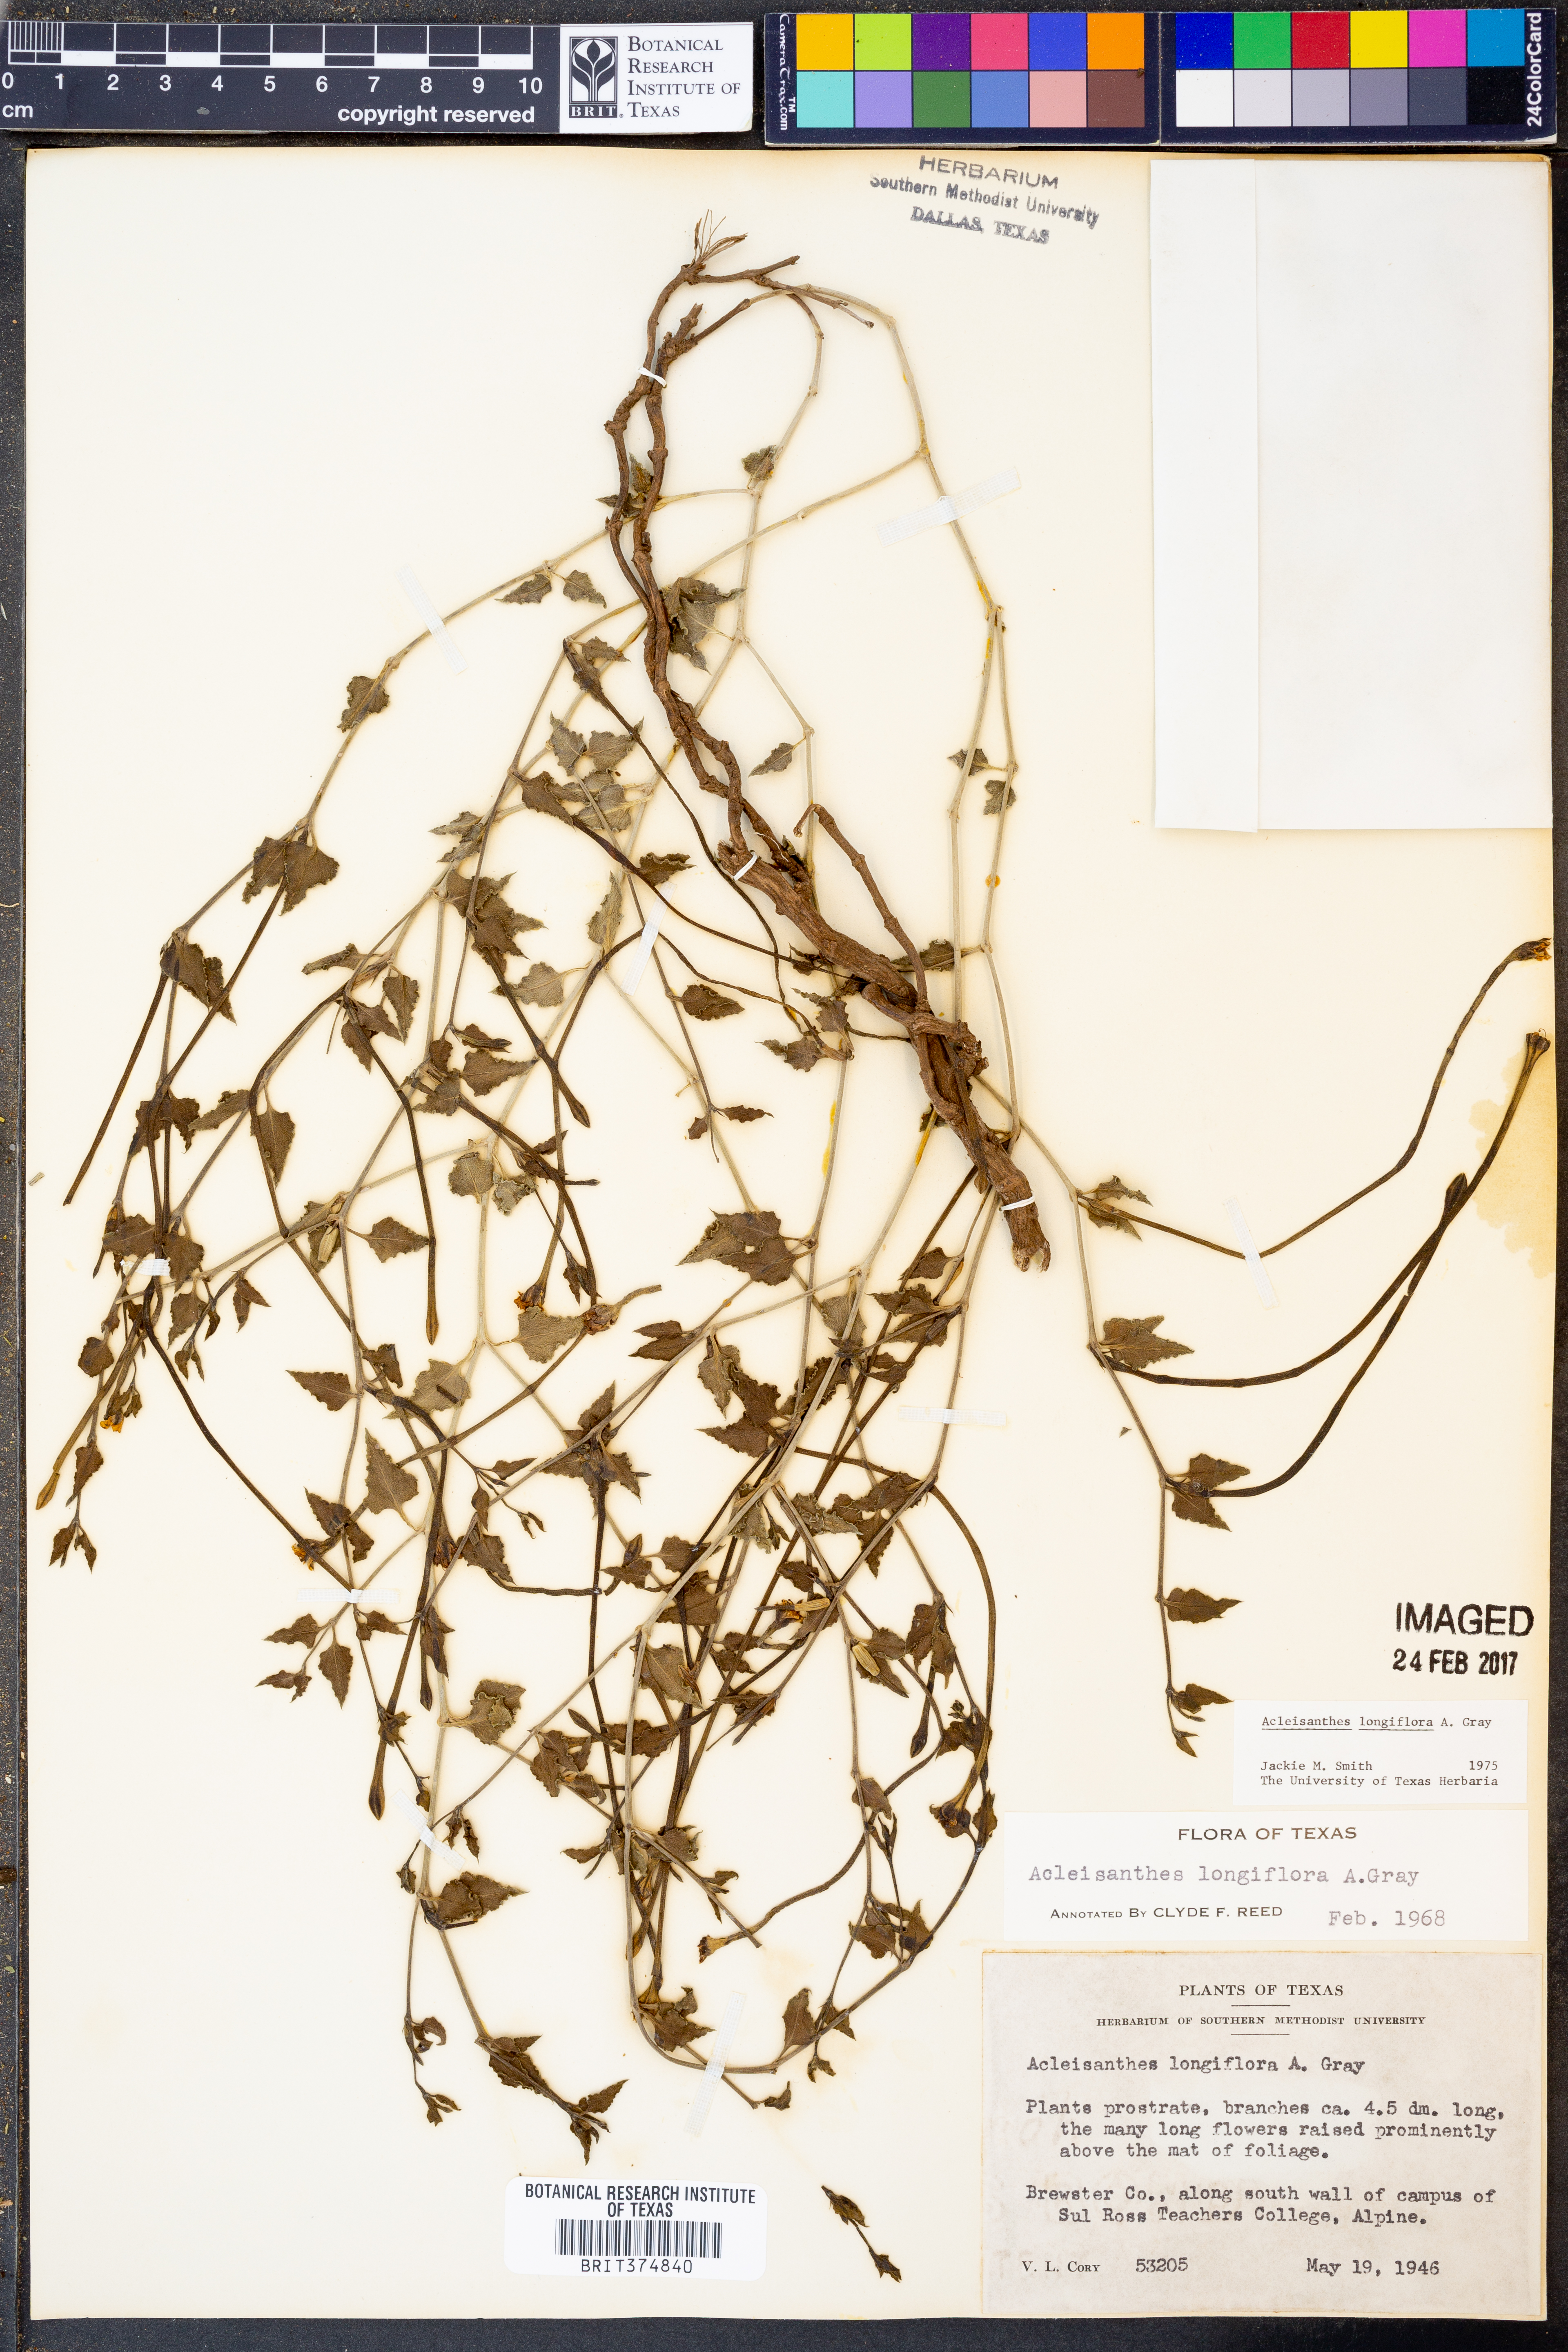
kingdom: Plantae
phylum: Tracheophyta
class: Magnoliopsida
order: Caryophyllales
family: Nyctaginaceae
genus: Acleisanthes
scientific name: Acleisanthes longiflora
